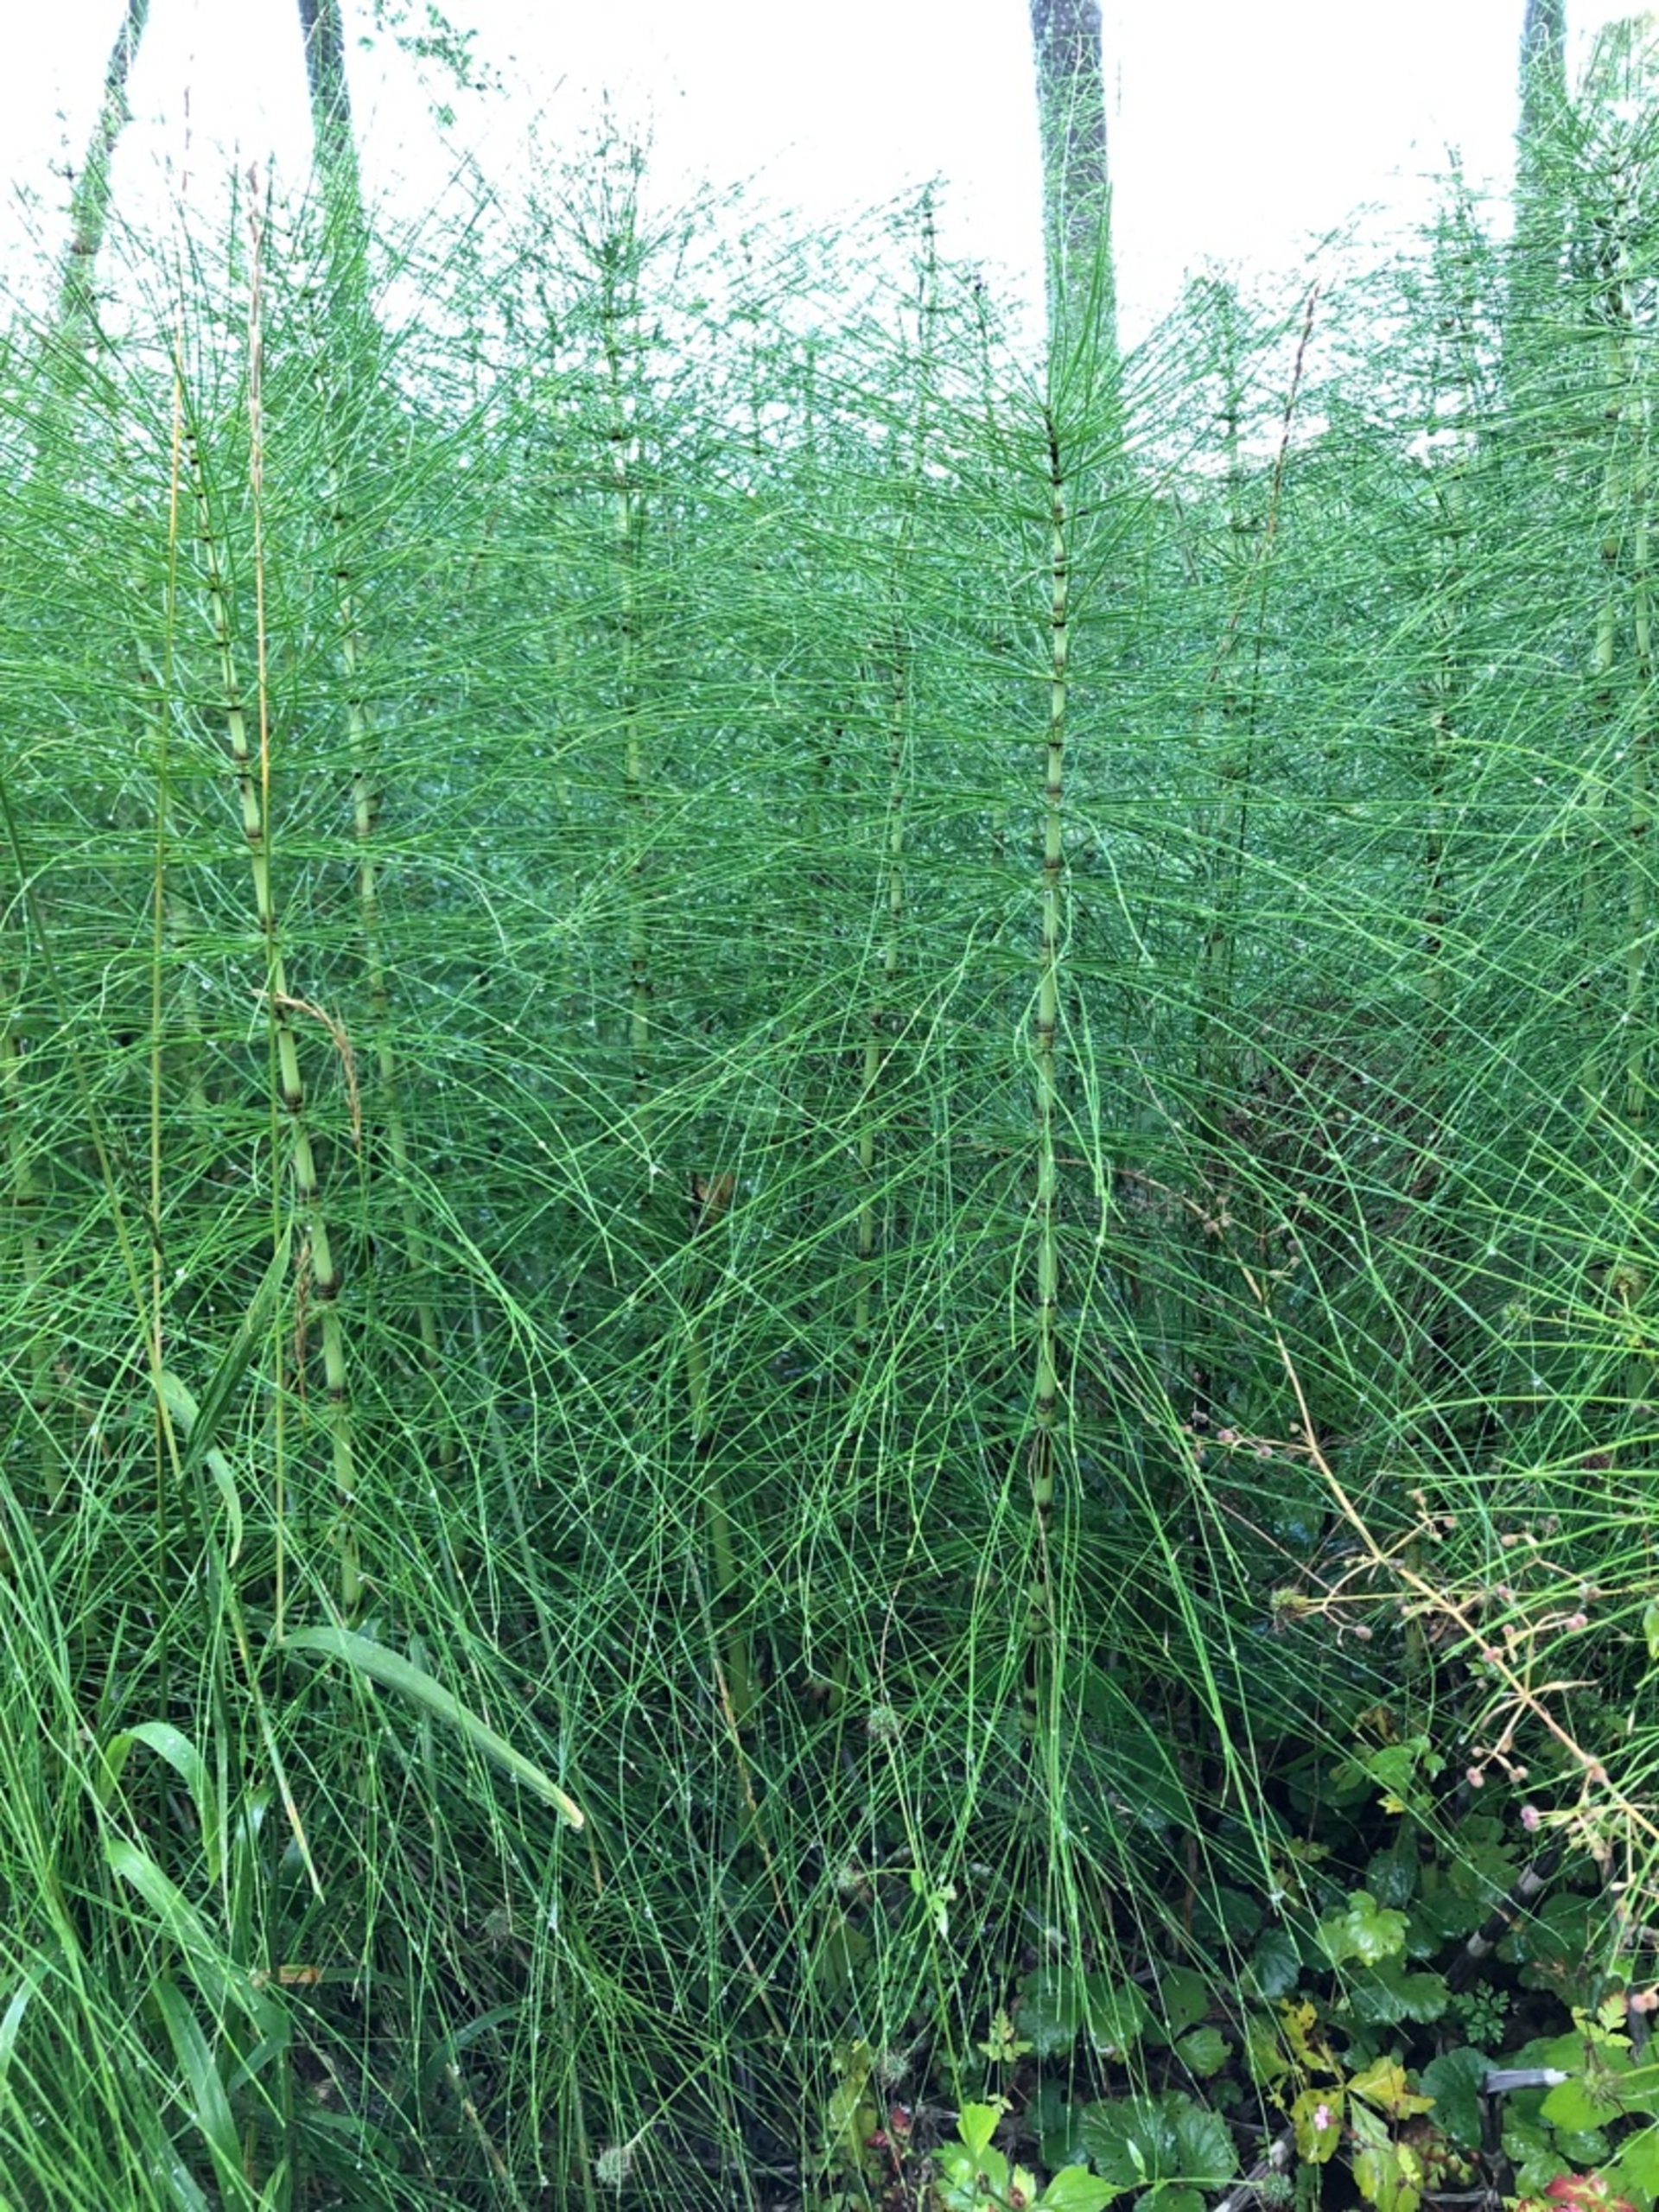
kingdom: Plantae
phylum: Tracheophyta
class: Polypodiopsida
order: Equisetales
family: Equisetaceae
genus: Equisetum
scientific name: Equisetum telmateia
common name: Elfenbens-padderok
